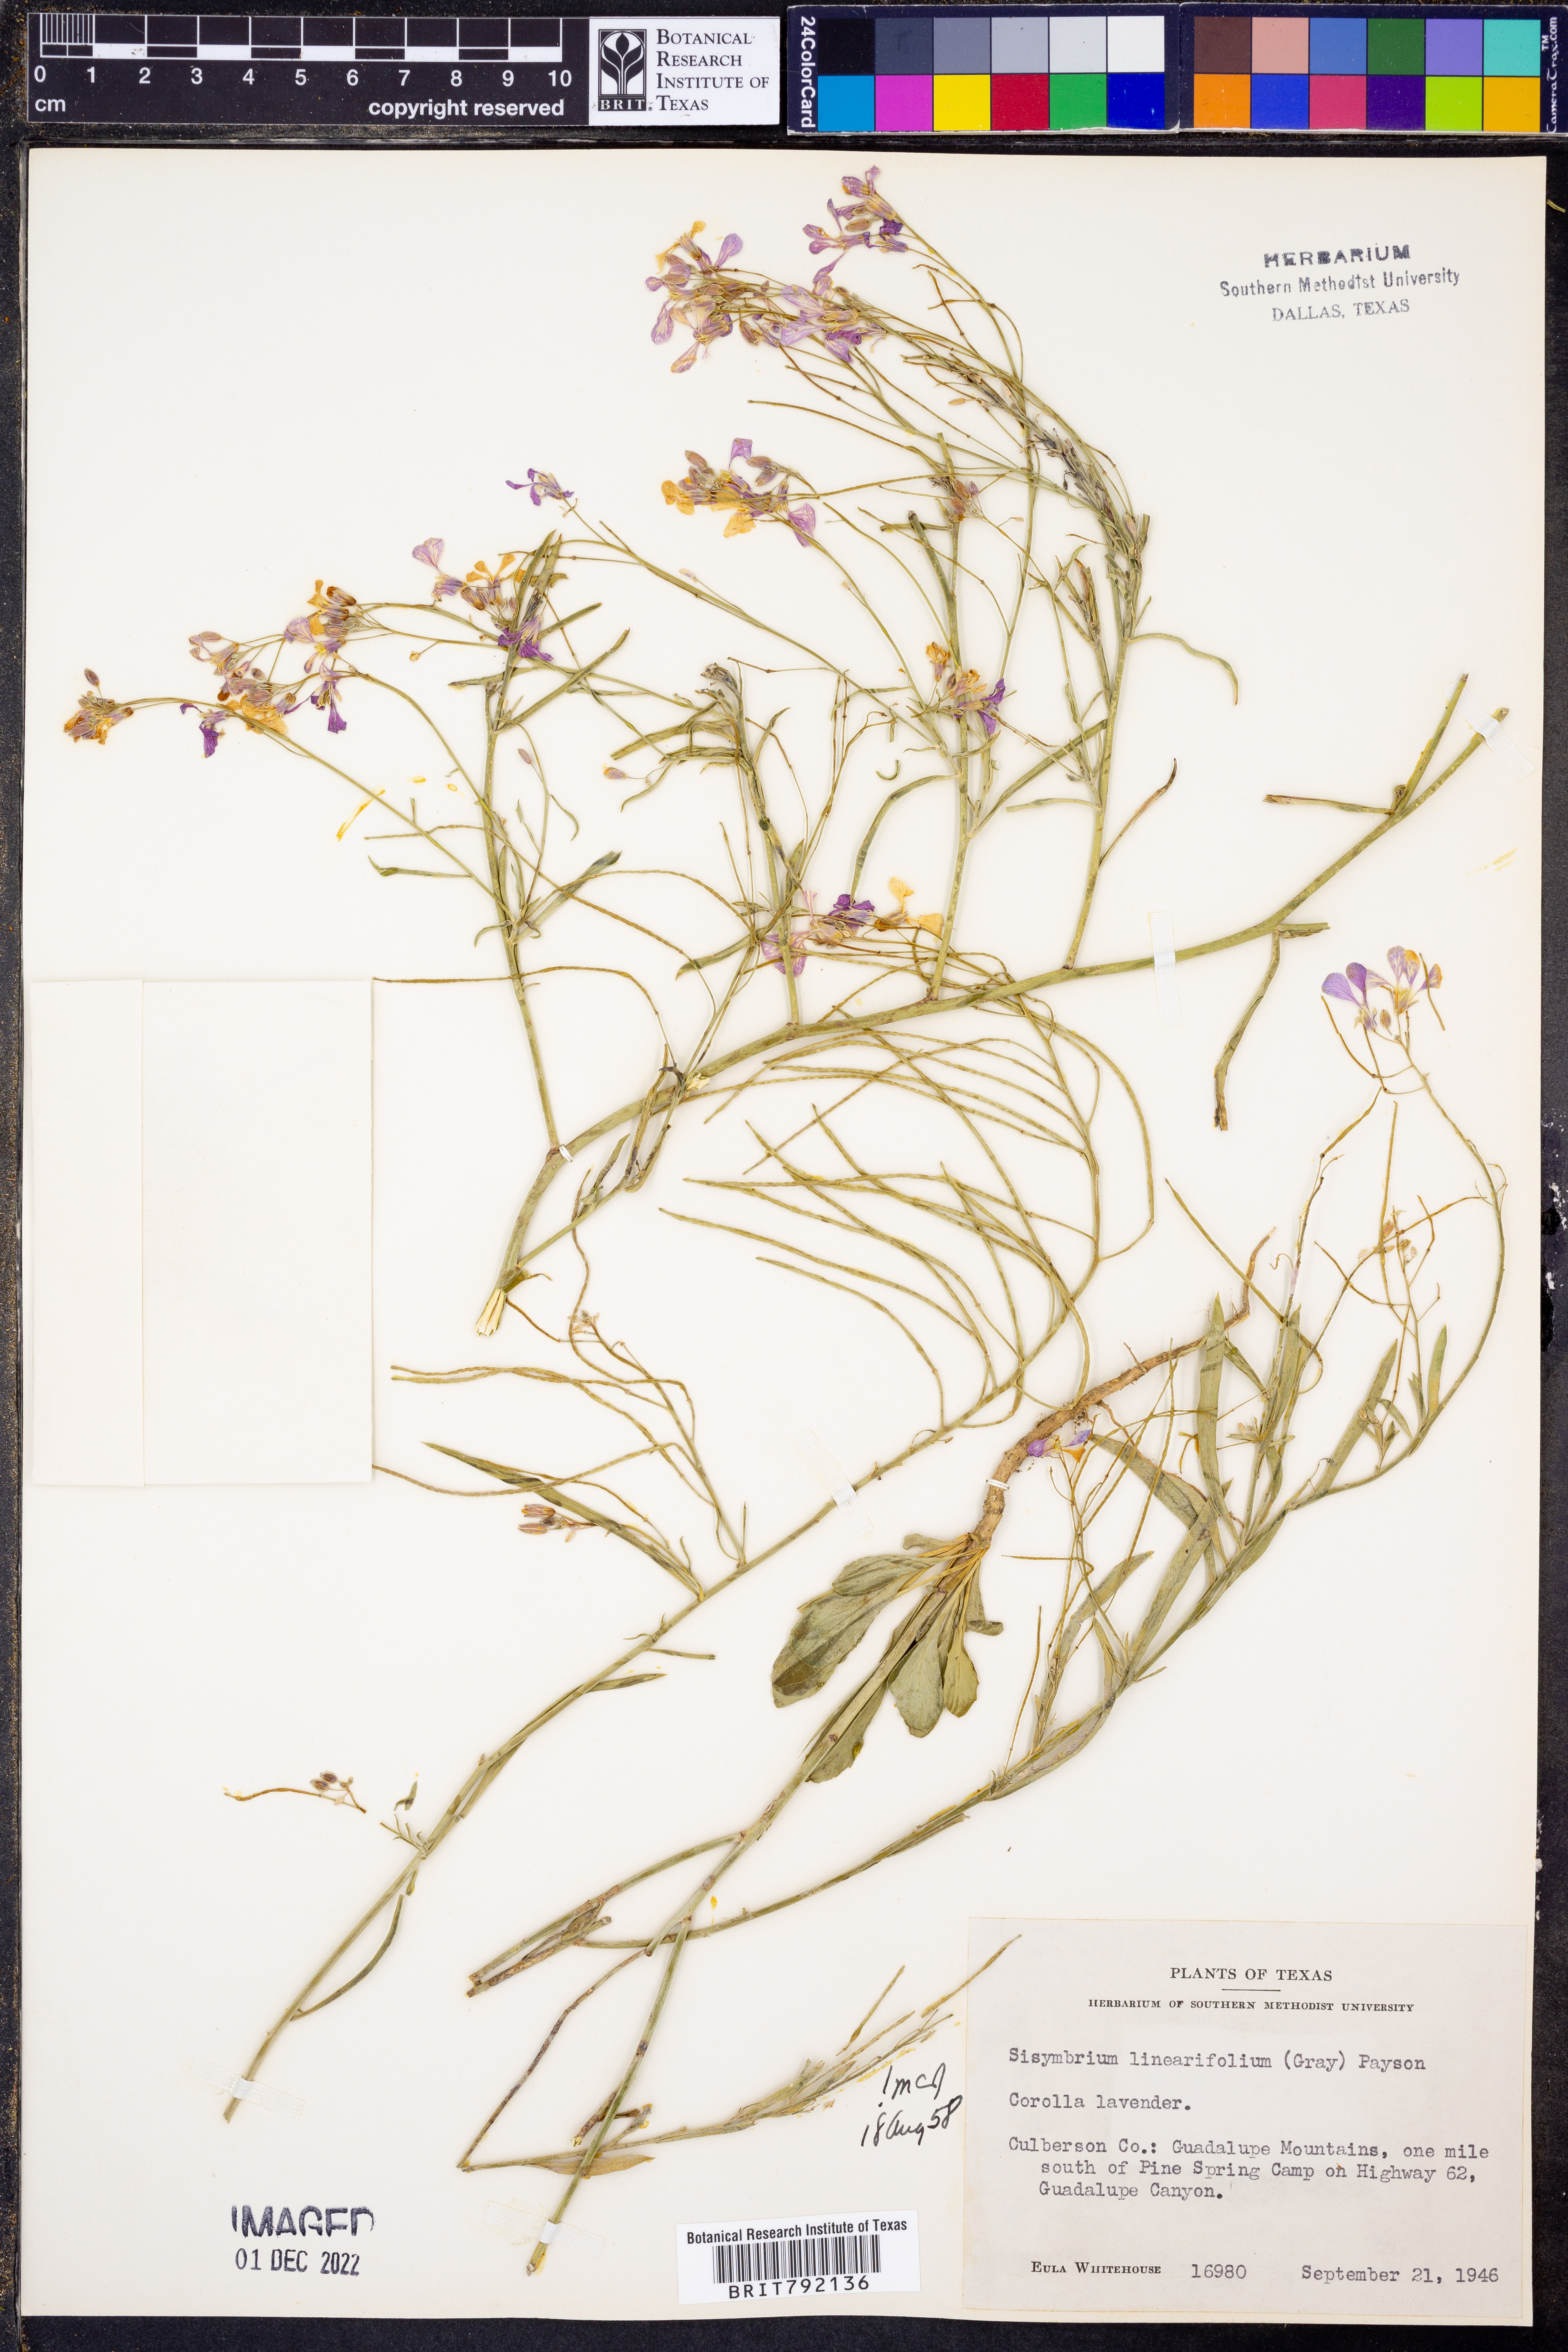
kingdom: Plantae
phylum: Tracheophyta
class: Magnoliopsida
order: Brassicales
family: Brassicaceae
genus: Hesperidanthus
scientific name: Hesperidanthus linearifolius
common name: Slim-leaf plains mustard
